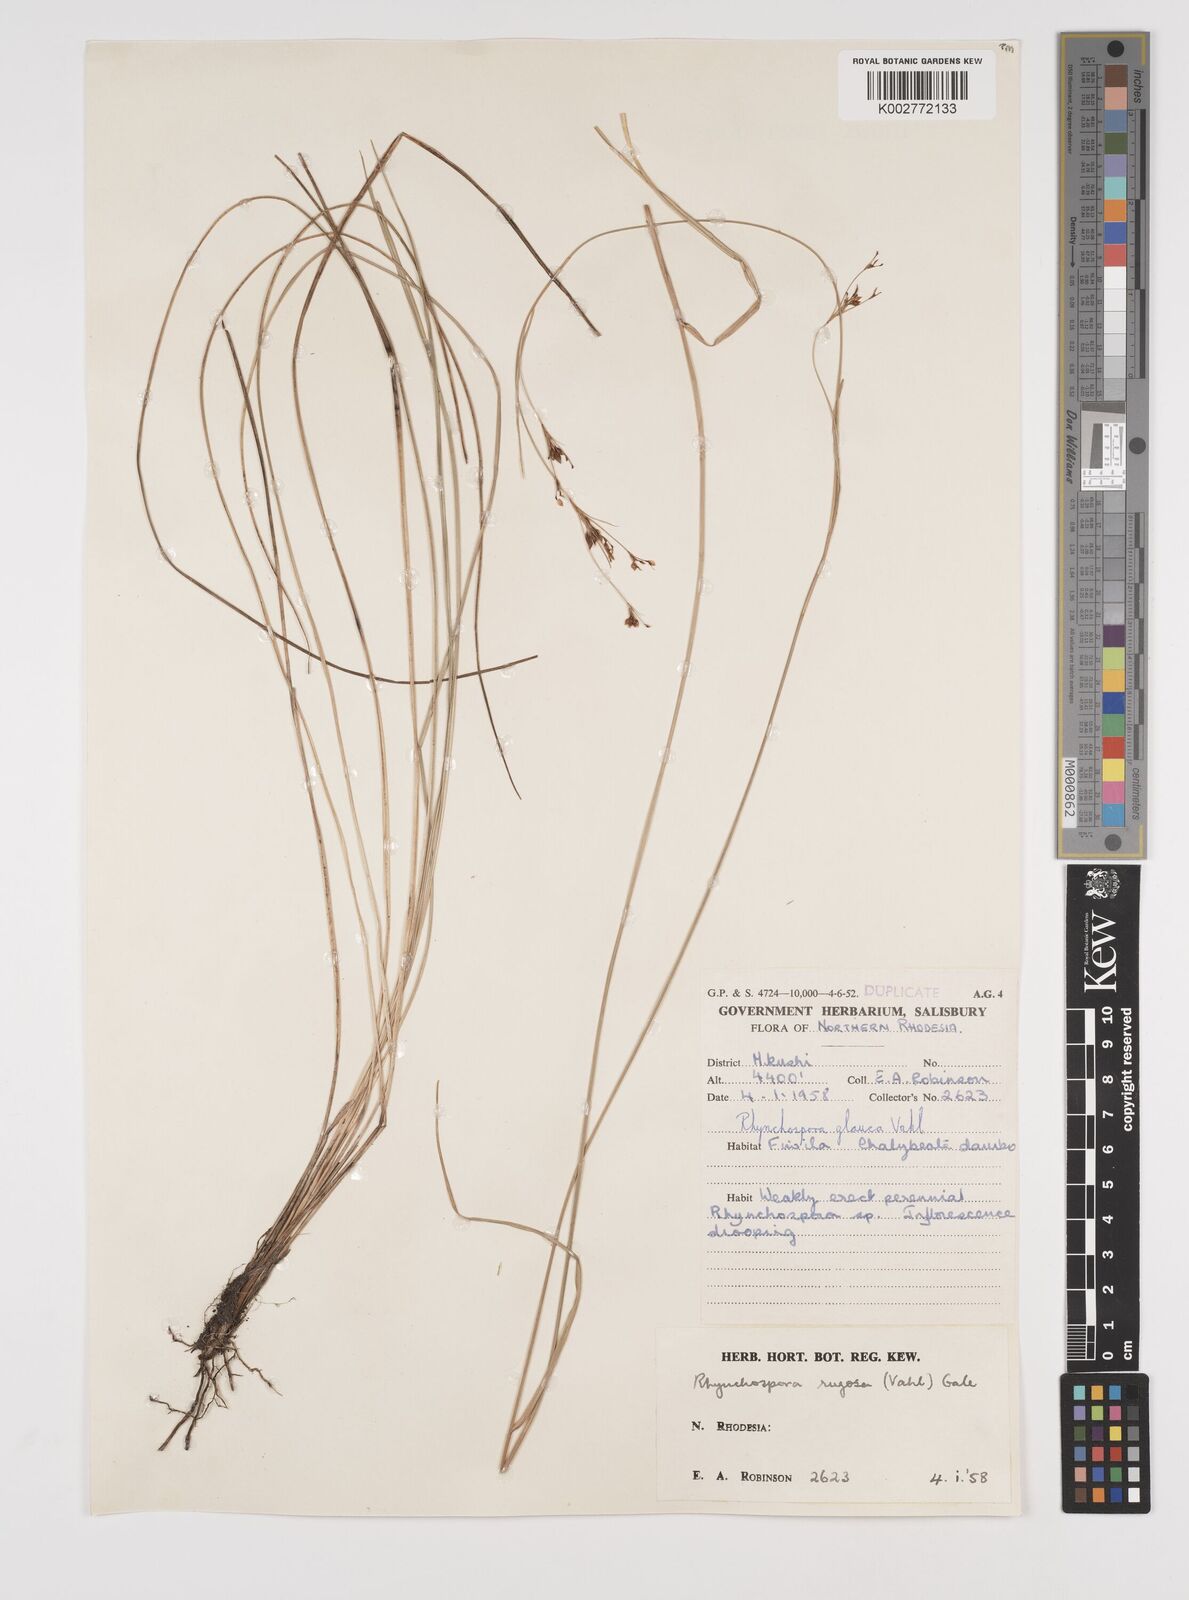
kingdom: Plantae
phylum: Tracheophyta
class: Liliopsida
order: Poales
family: Cyperaceae
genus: Rhynchospora
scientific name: Rhynchospora
